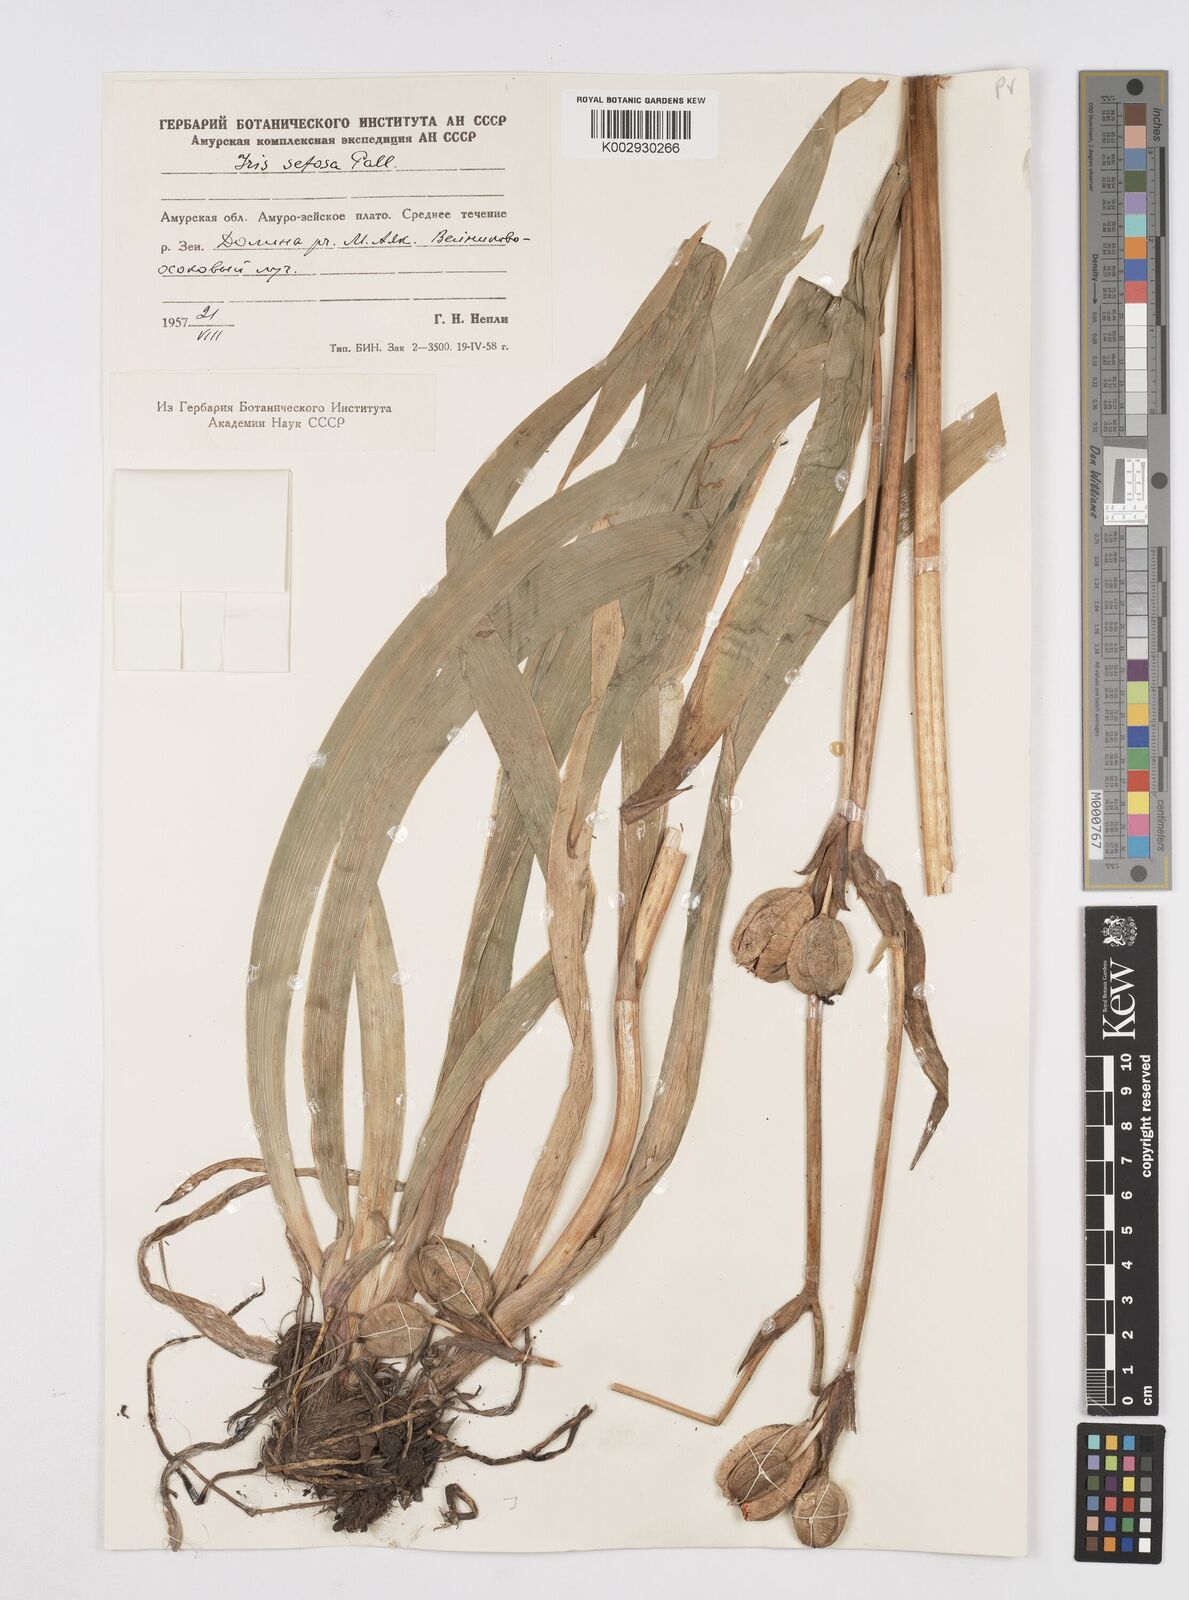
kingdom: Plantae
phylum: Tracheophyta
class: Liliopsida
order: Asparagales
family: Iridaceae
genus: Iris
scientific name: Iris setosa
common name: Arctic blue flag
